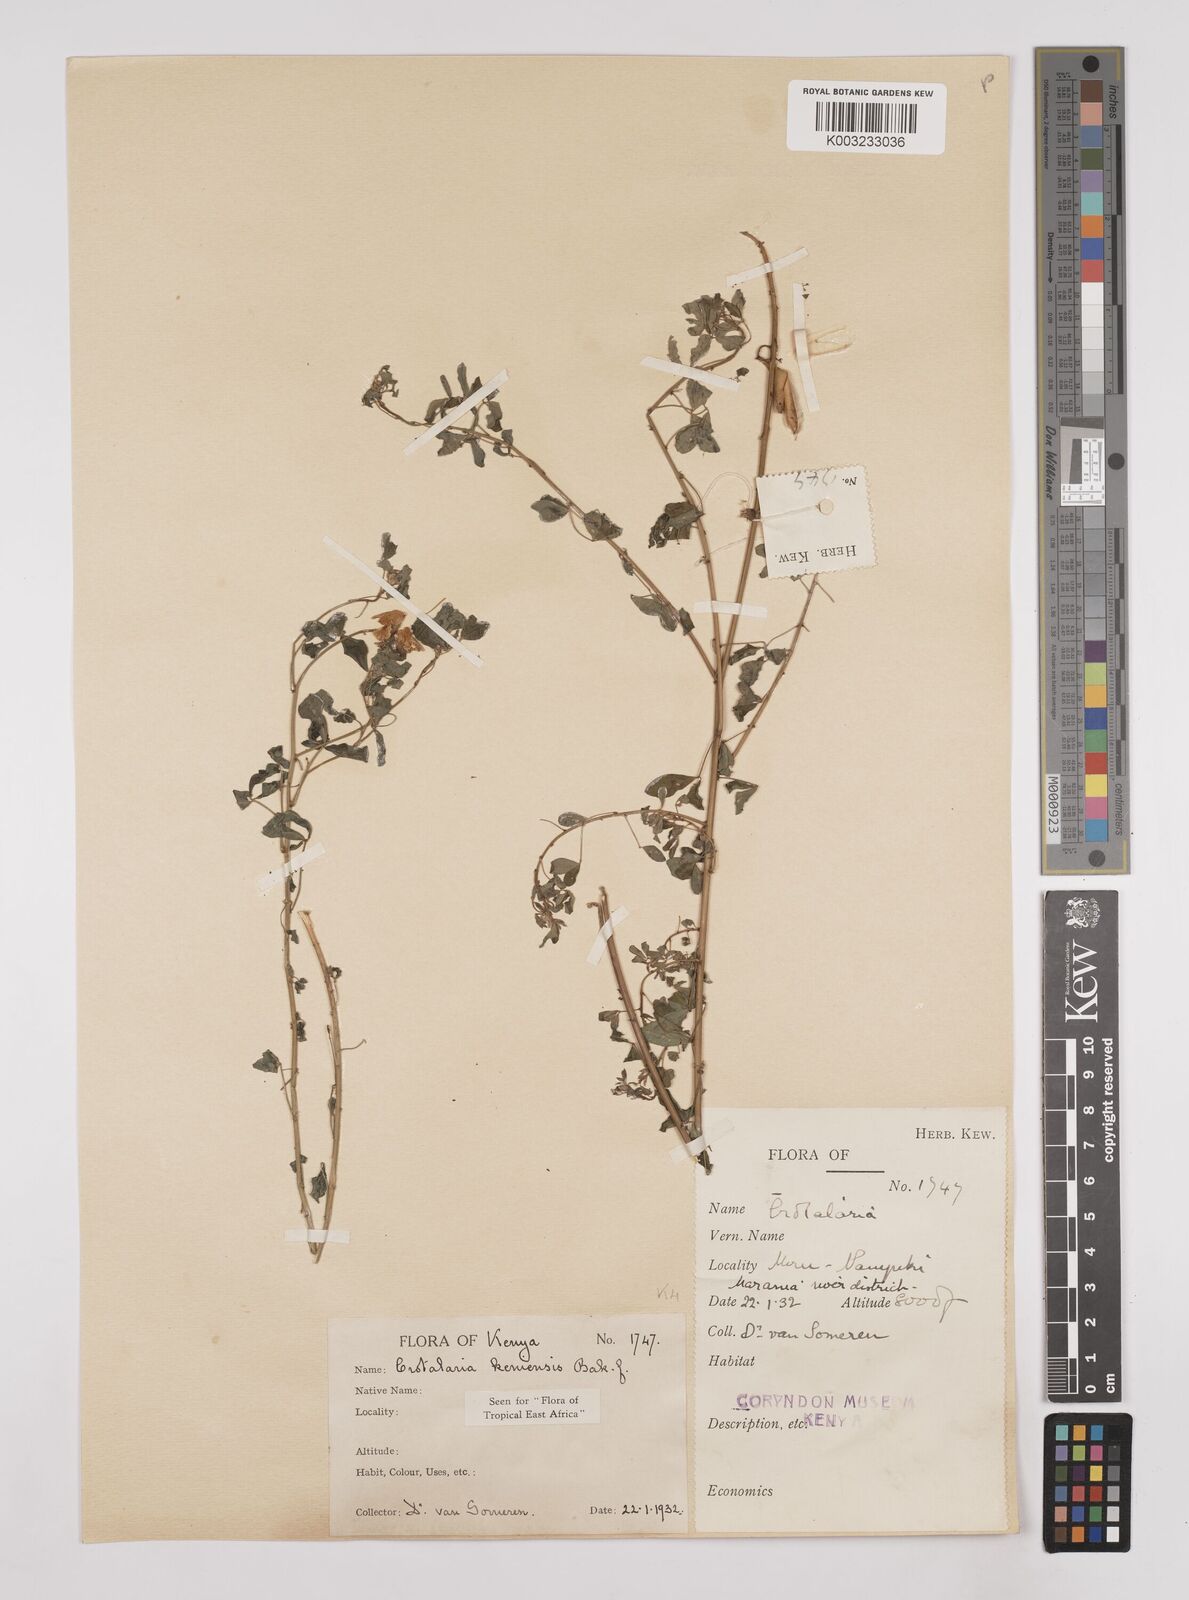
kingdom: Plantae
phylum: Tracheophyta
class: Magnoliopsida
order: Fabales
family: Fabaceae
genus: Crotalaria
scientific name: Crotalaria keniensis
